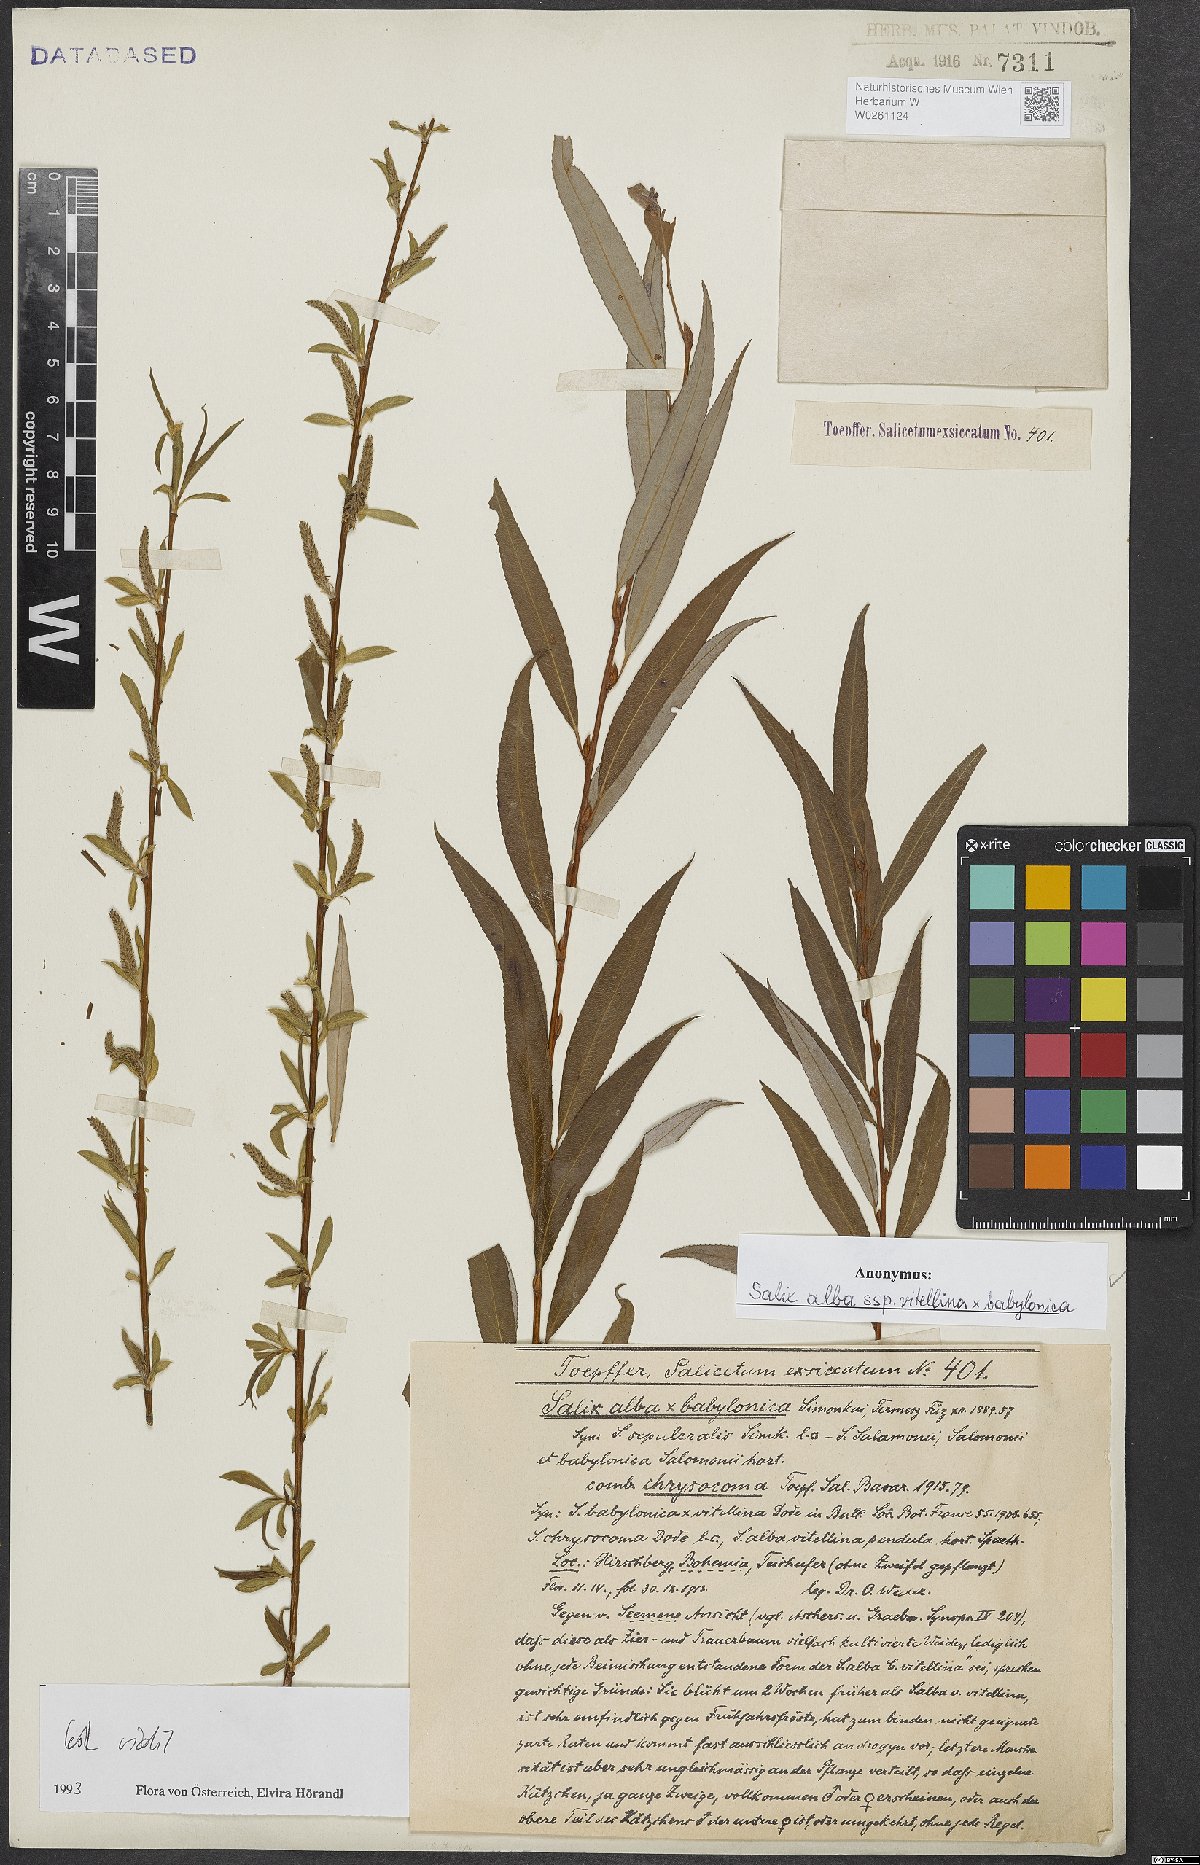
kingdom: Plantae
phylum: Tracheophyta
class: Magnoliopsida
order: Malpighiales
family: Salicaceae
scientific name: Salicaceae
